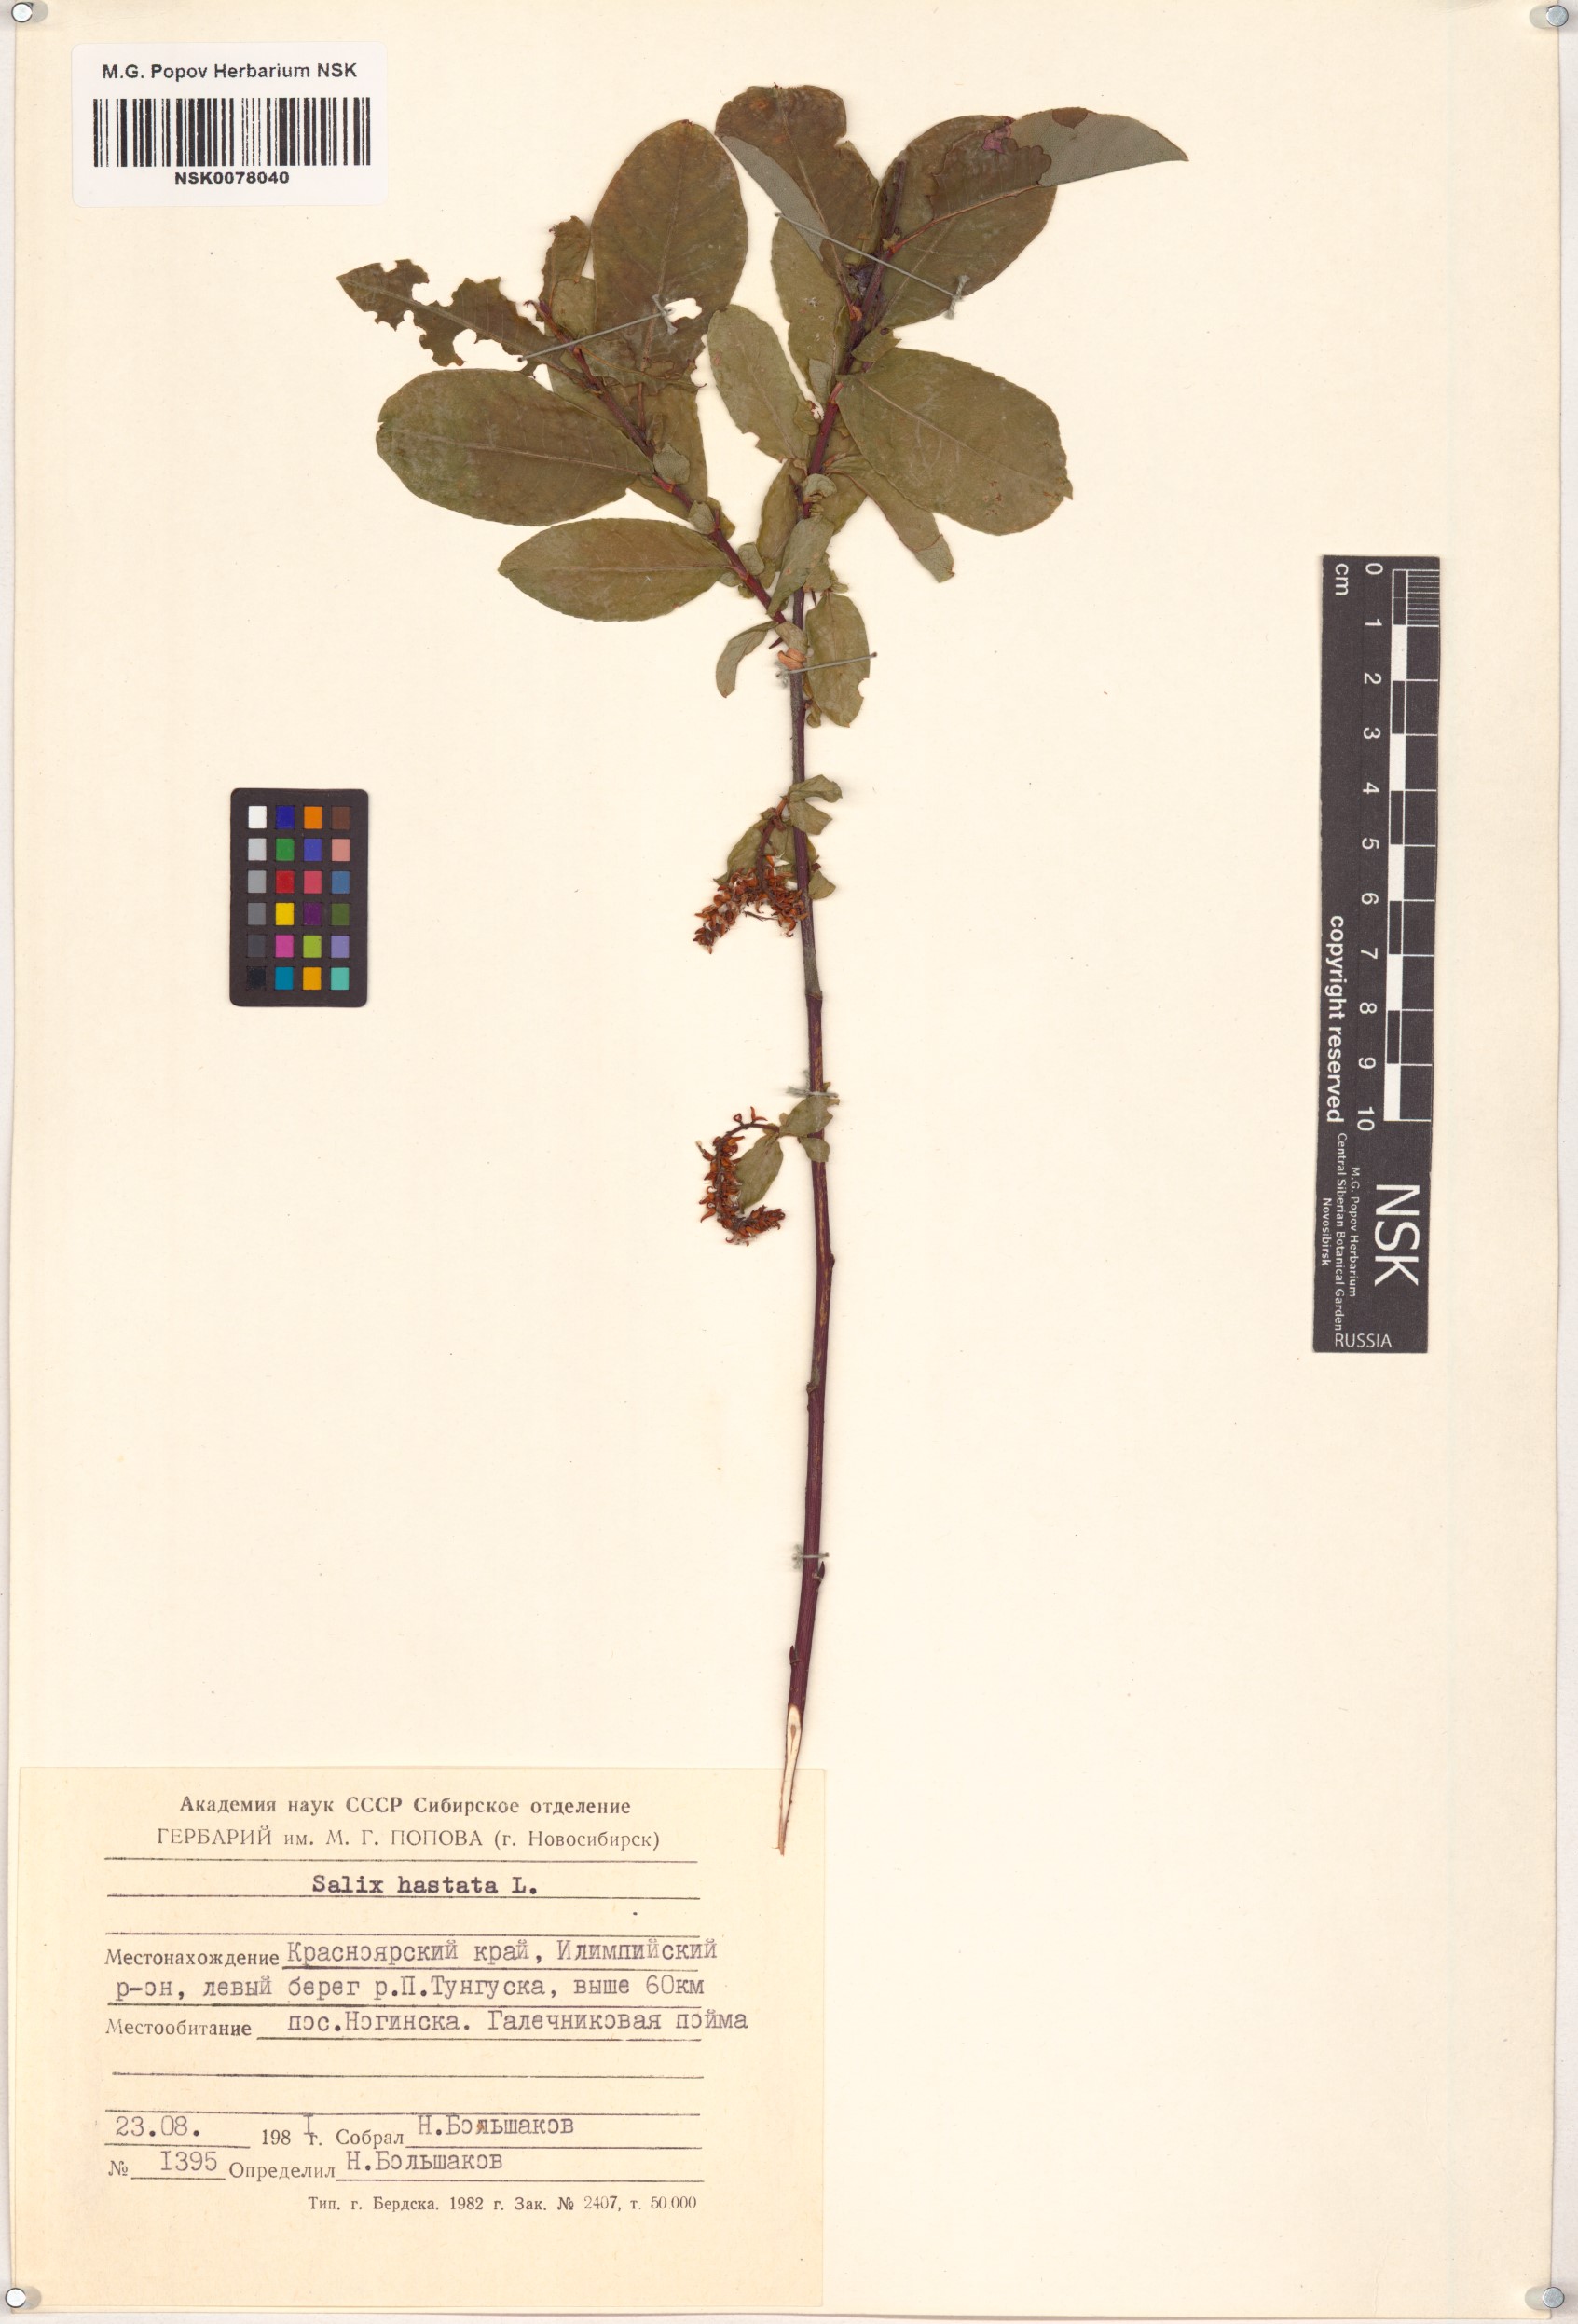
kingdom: Plantae
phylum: Tracheophyta
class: Magnoliopsida
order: Malpighiales
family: Salicaceae
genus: Salix
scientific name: Salix hastata
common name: Halberd willow
